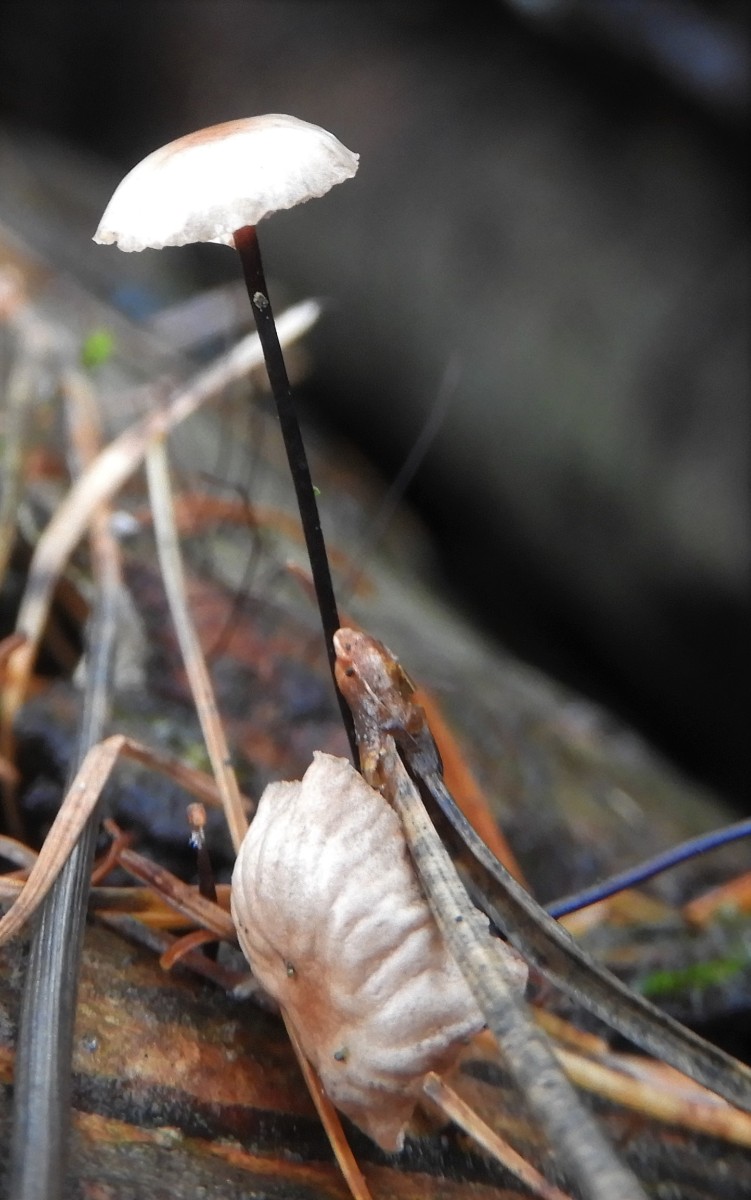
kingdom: Fungi
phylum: Basidiomycota
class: Agaricomycetes
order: Agaricales
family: Omphalotaceae
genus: Gymnopus
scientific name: Gymnopus androsaceus
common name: trådstokket fladhat
